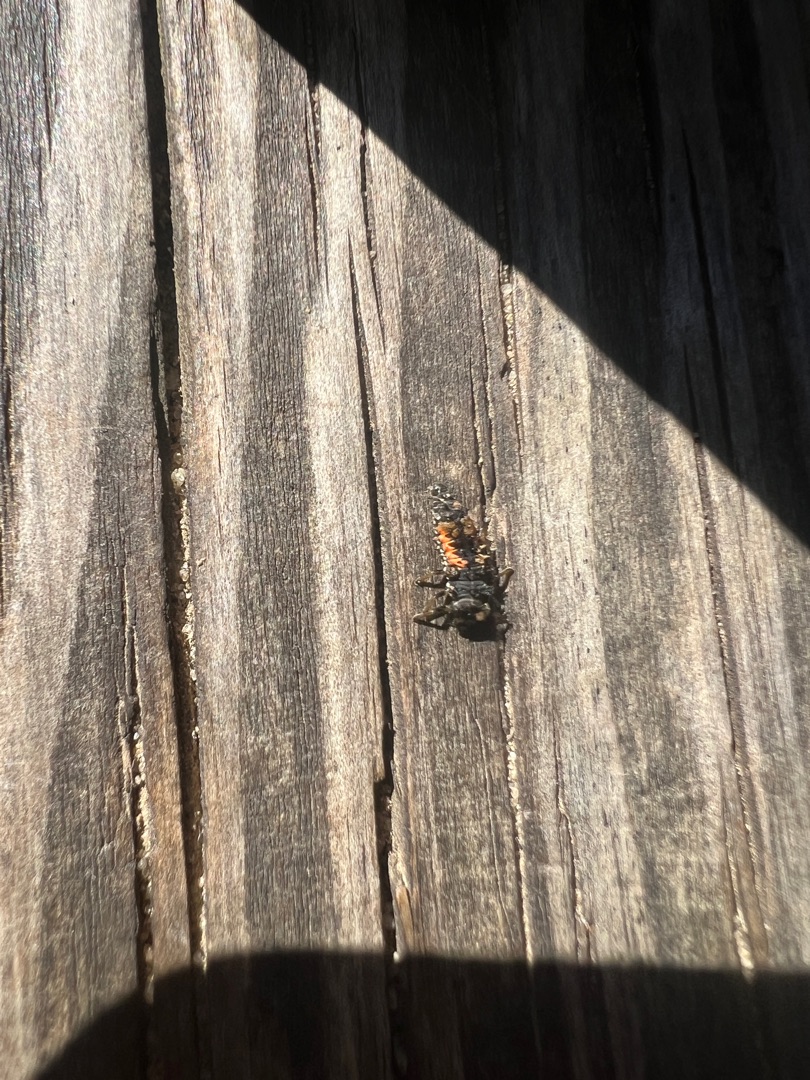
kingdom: Animalia
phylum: Arthropoda
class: Insecta
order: Coleoptera
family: Coccinellidae
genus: Harmonia
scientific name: Harmonia axyridis
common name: Harlekinmariehøne
